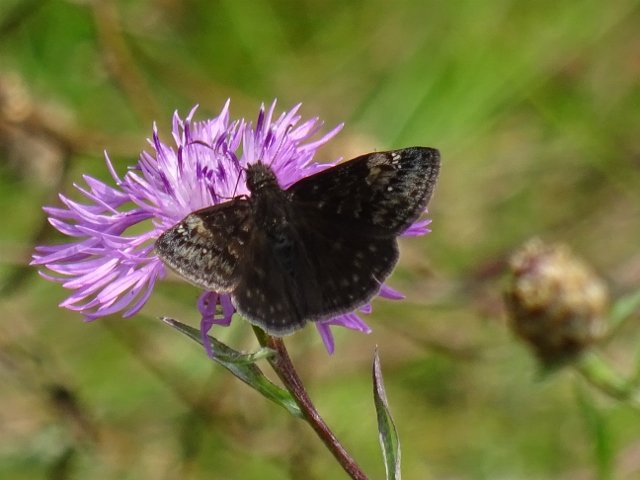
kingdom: Animalia
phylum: Arthropoda
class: Insecta
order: Lepidoptera
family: Hesperiidae
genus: Gesta
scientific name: Gesta
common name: Wild Indigo Duskywing
